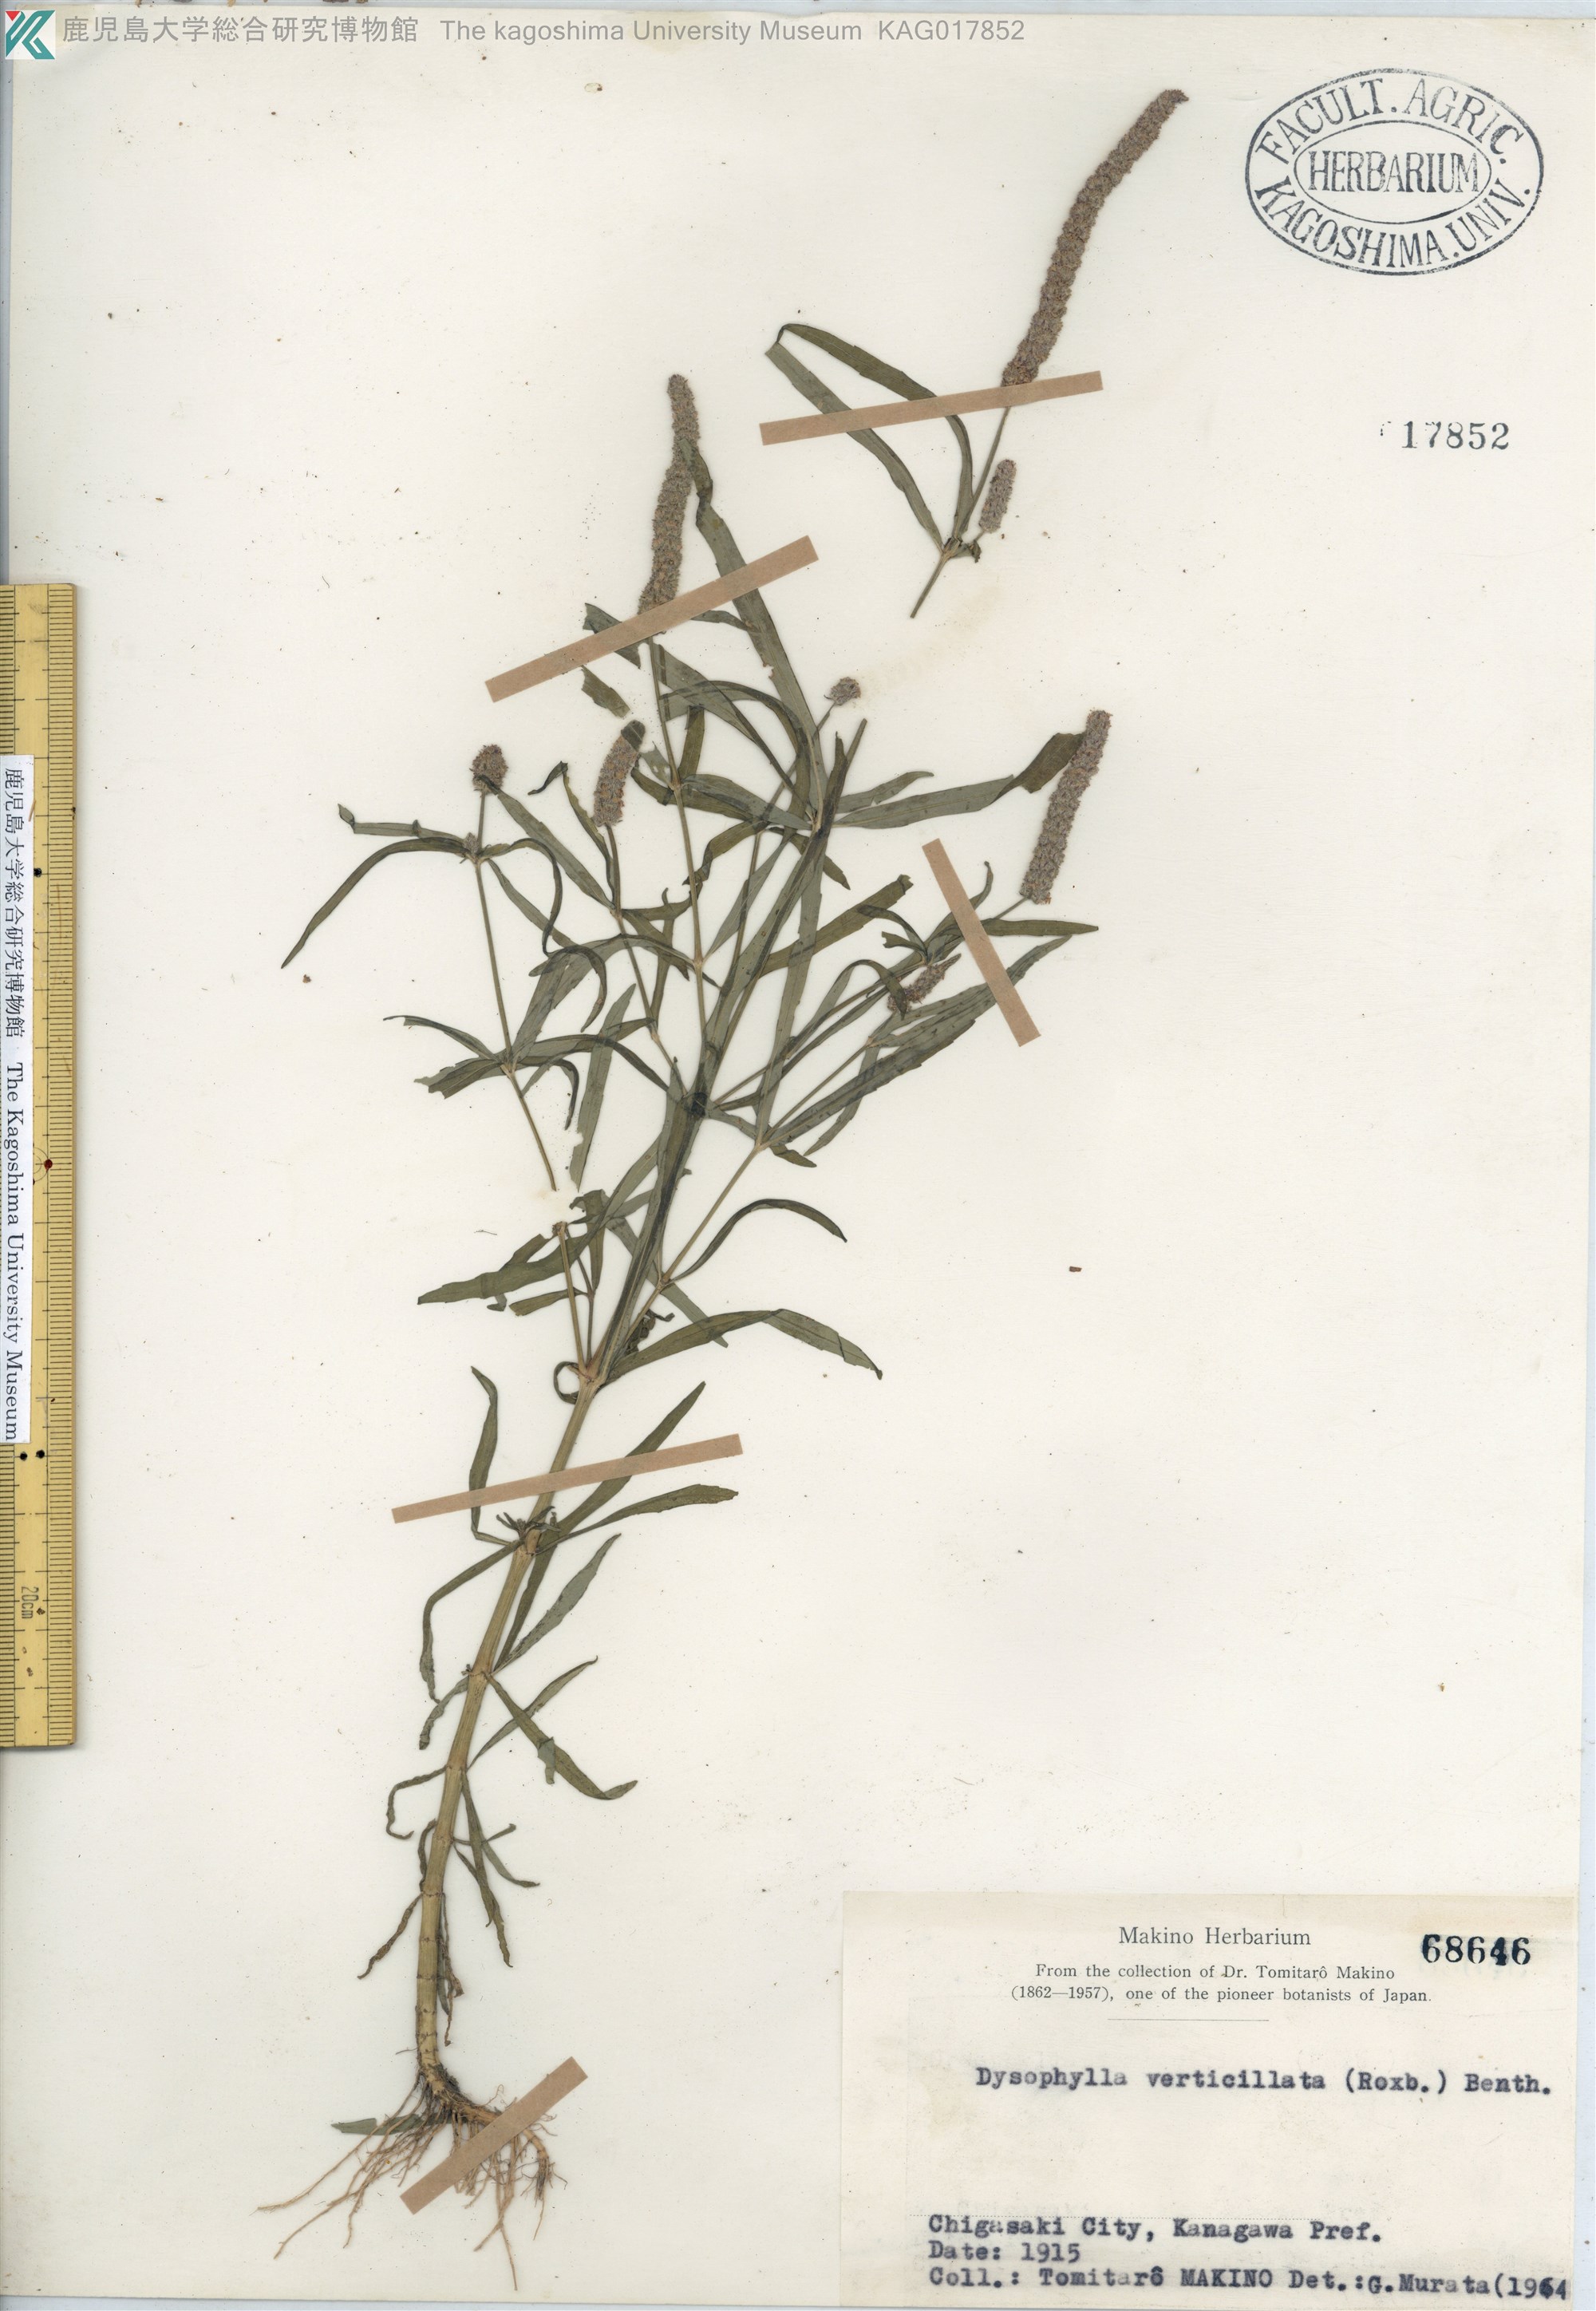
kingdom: Plantae
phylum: Tracheophyta
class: Magnoliopsida
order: Lamiales
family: Lamiaceae
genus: Pogostemon
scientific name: Pogostemon stellatus
